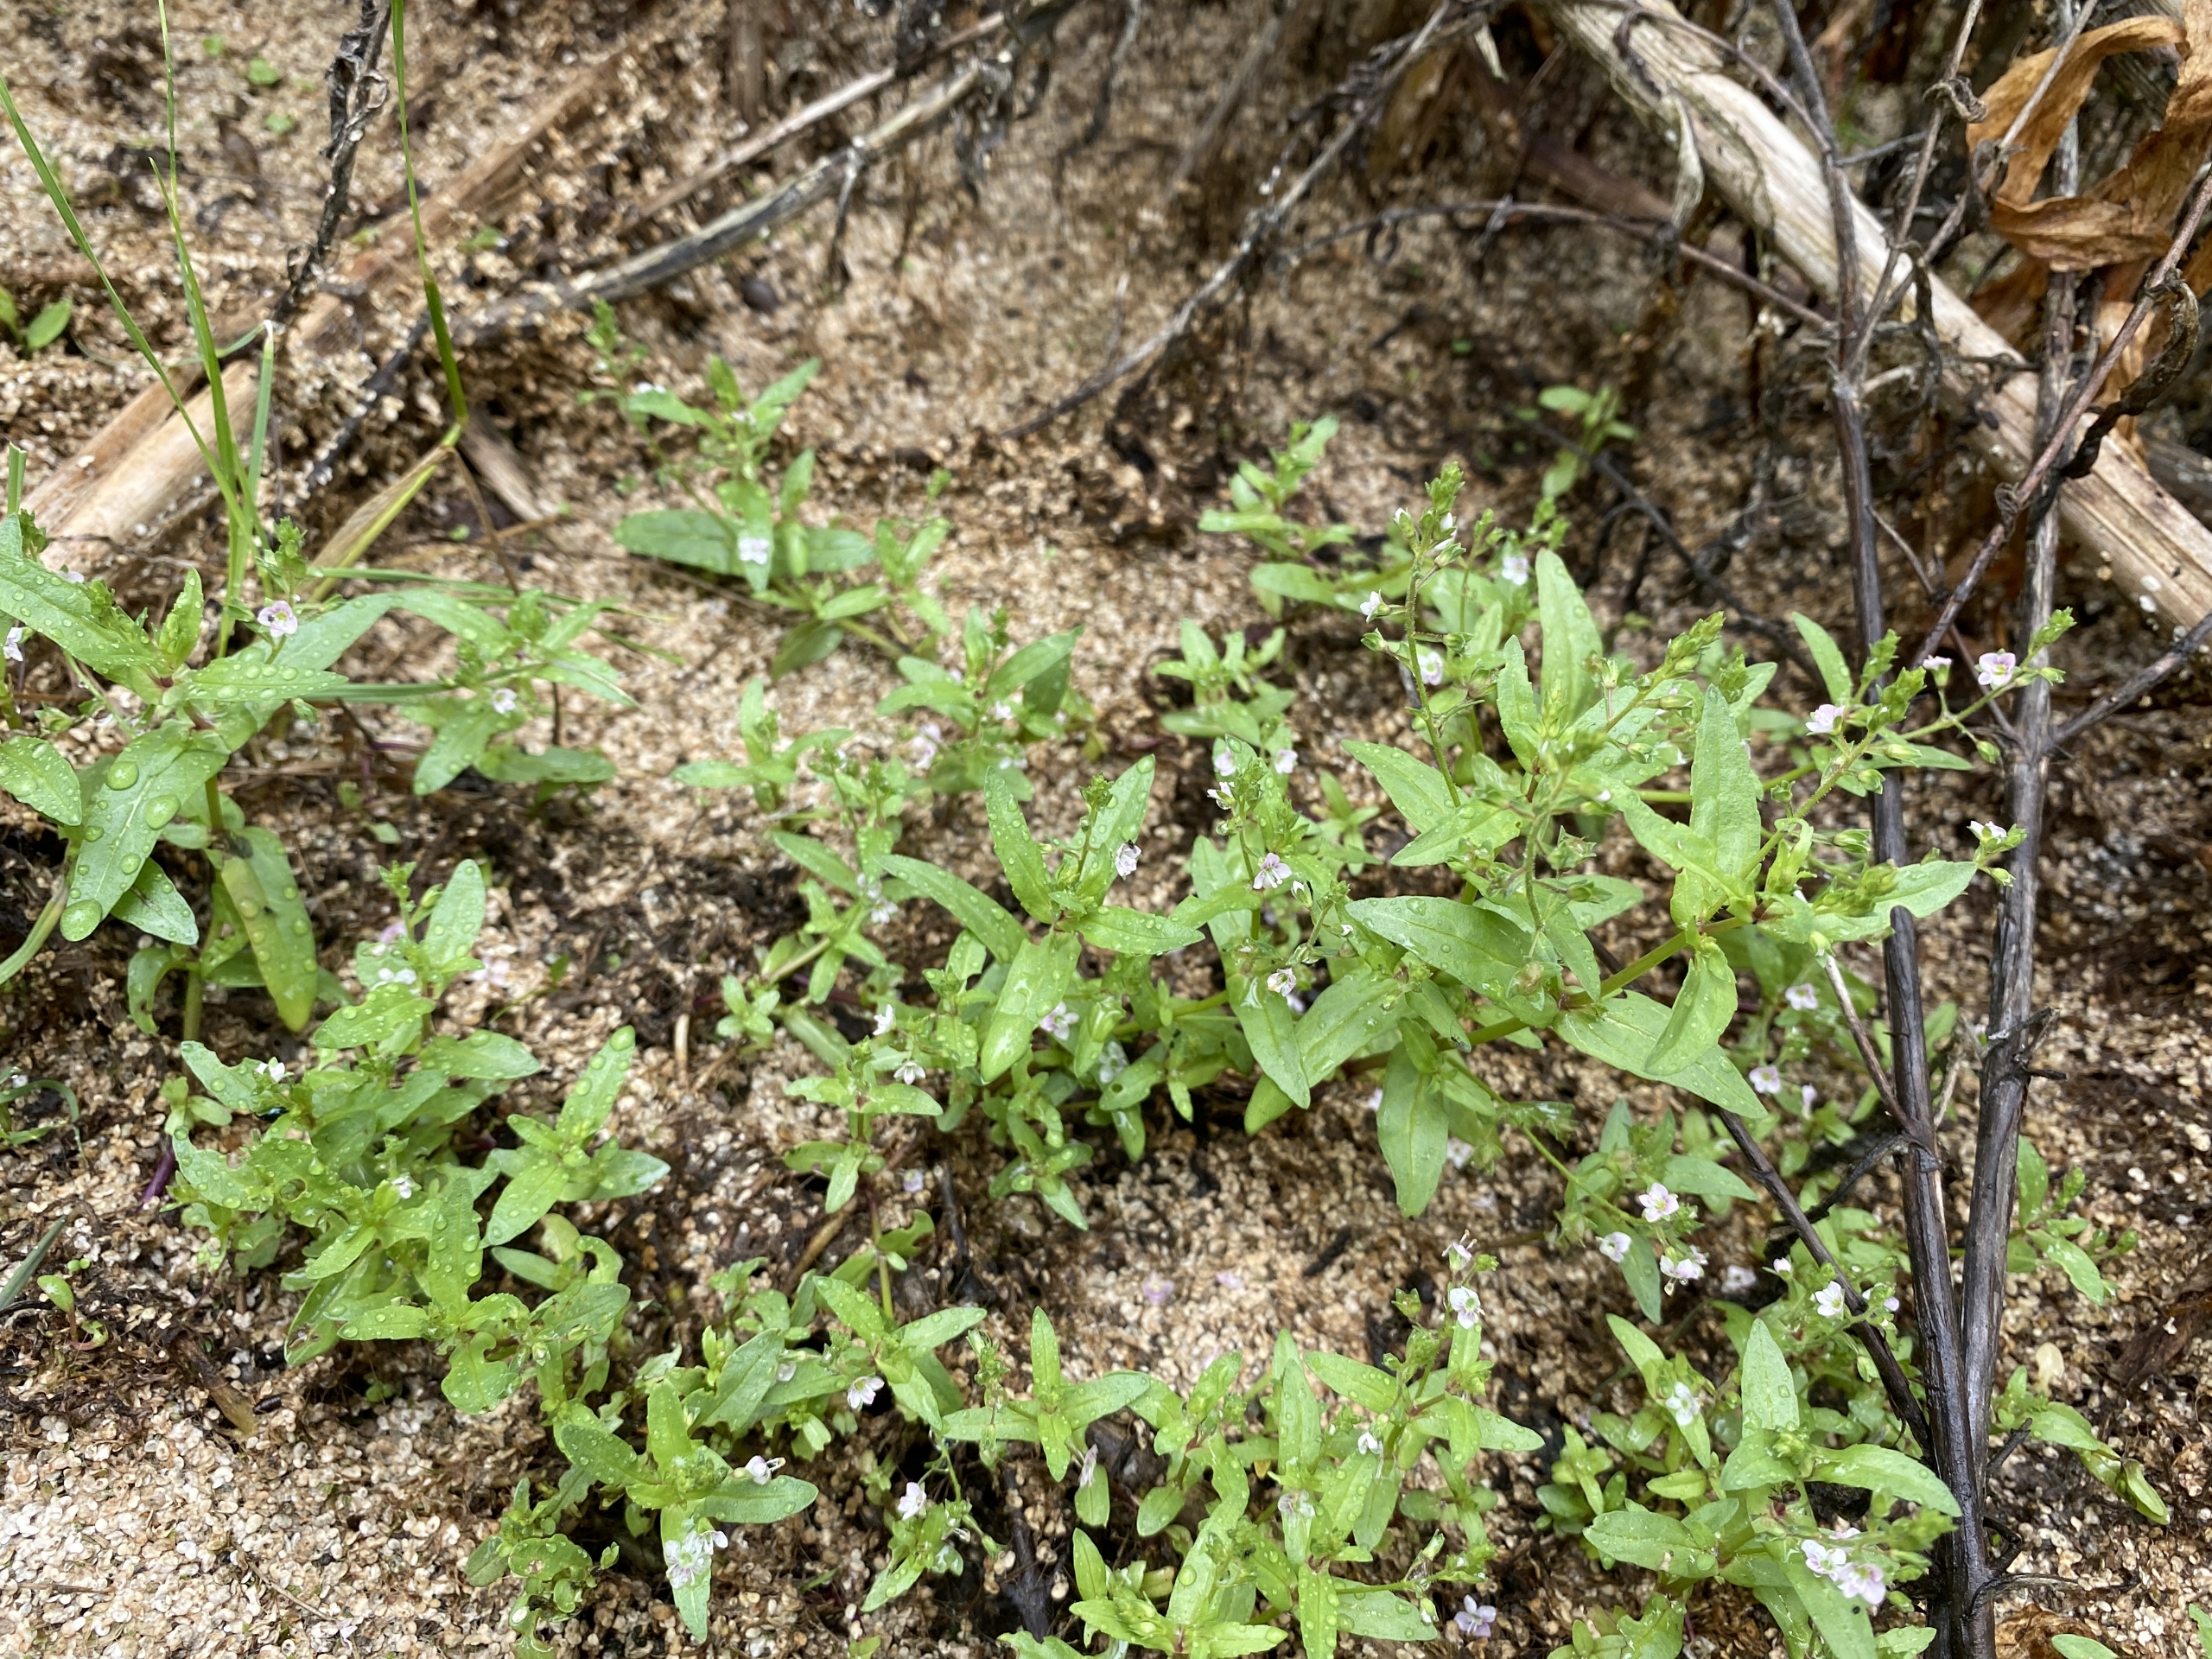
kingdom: Plantae
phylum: Tracheophyta
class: Magnoliopsida
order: Lamiales
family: Plantaginaceae
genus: Veronica
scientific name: Veronica catenata
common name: Vand-ærenpris
